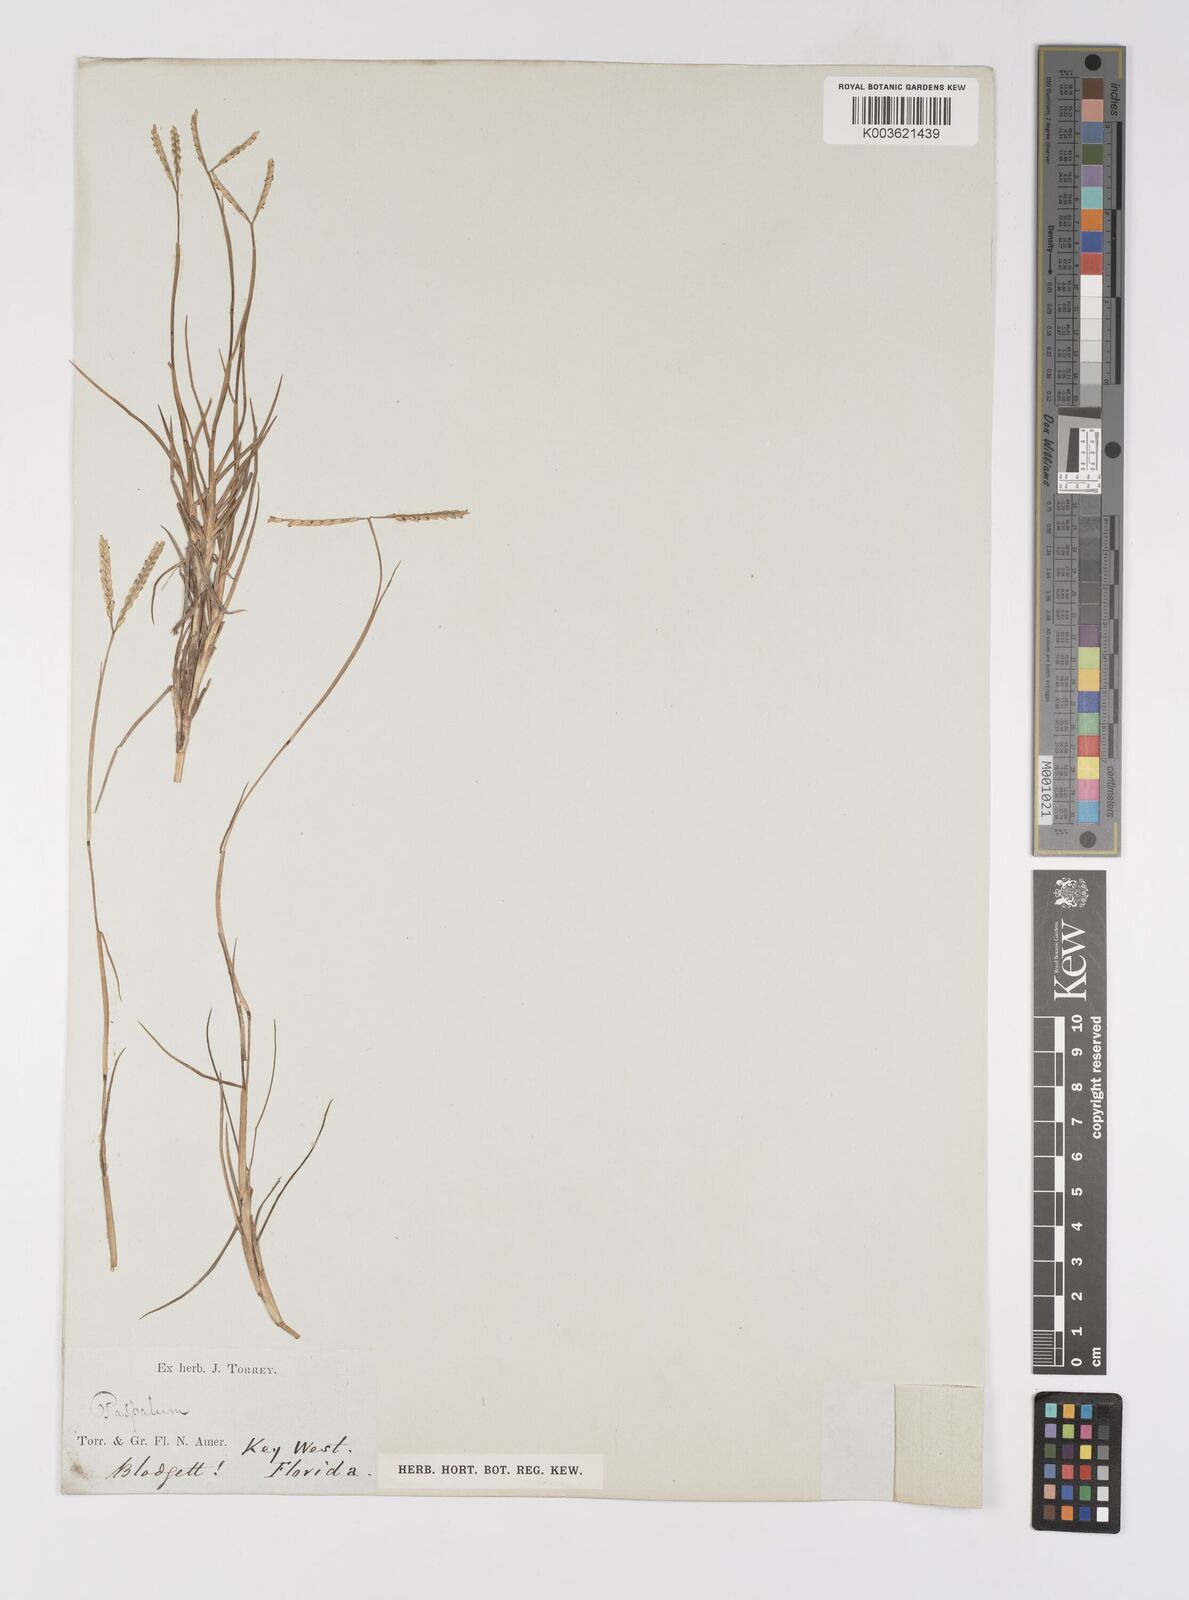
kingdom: Plantae
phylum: Tracheophyta
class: Liliopsida
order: Poales
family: Poaceae
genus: Paspalum
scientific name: Paspalum
